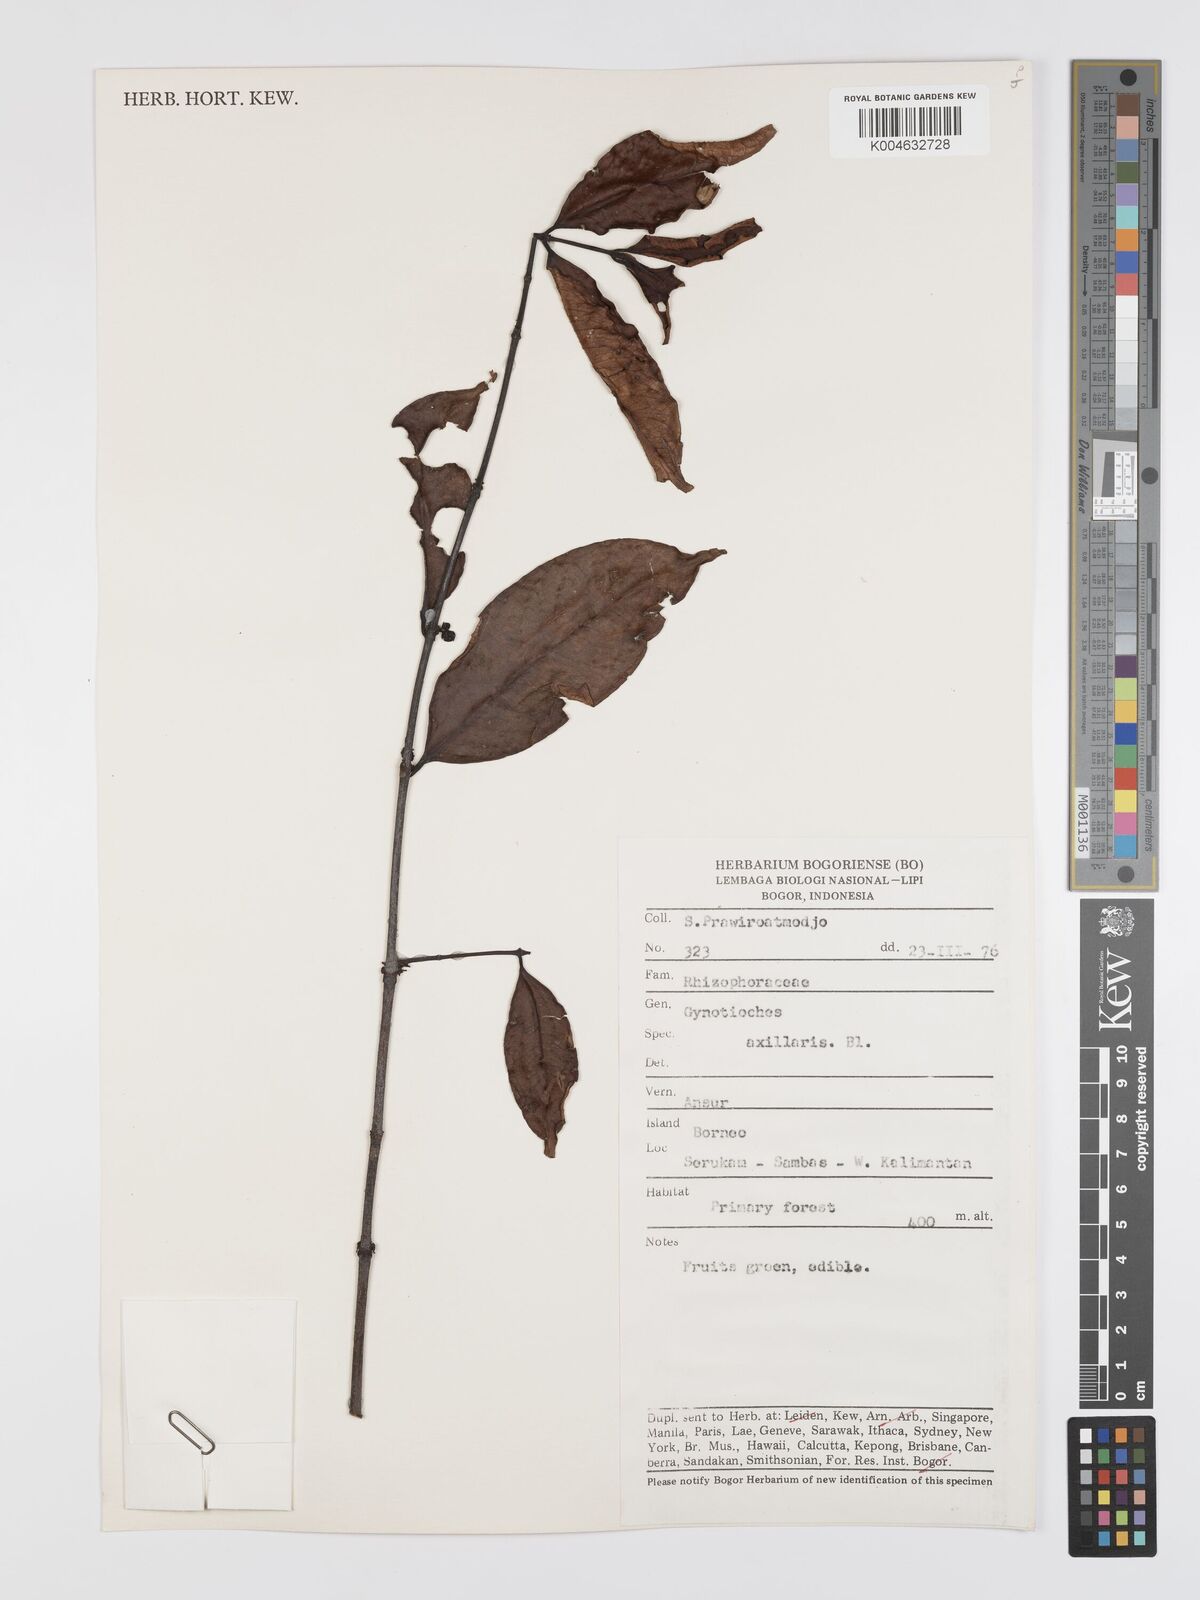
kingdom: Plantae
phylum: Tracheophyta
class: Magnoliopsida
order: Malpighiales
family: Rhizophoraceae
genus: Gynotroches
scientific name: Gynotroches axillaris
